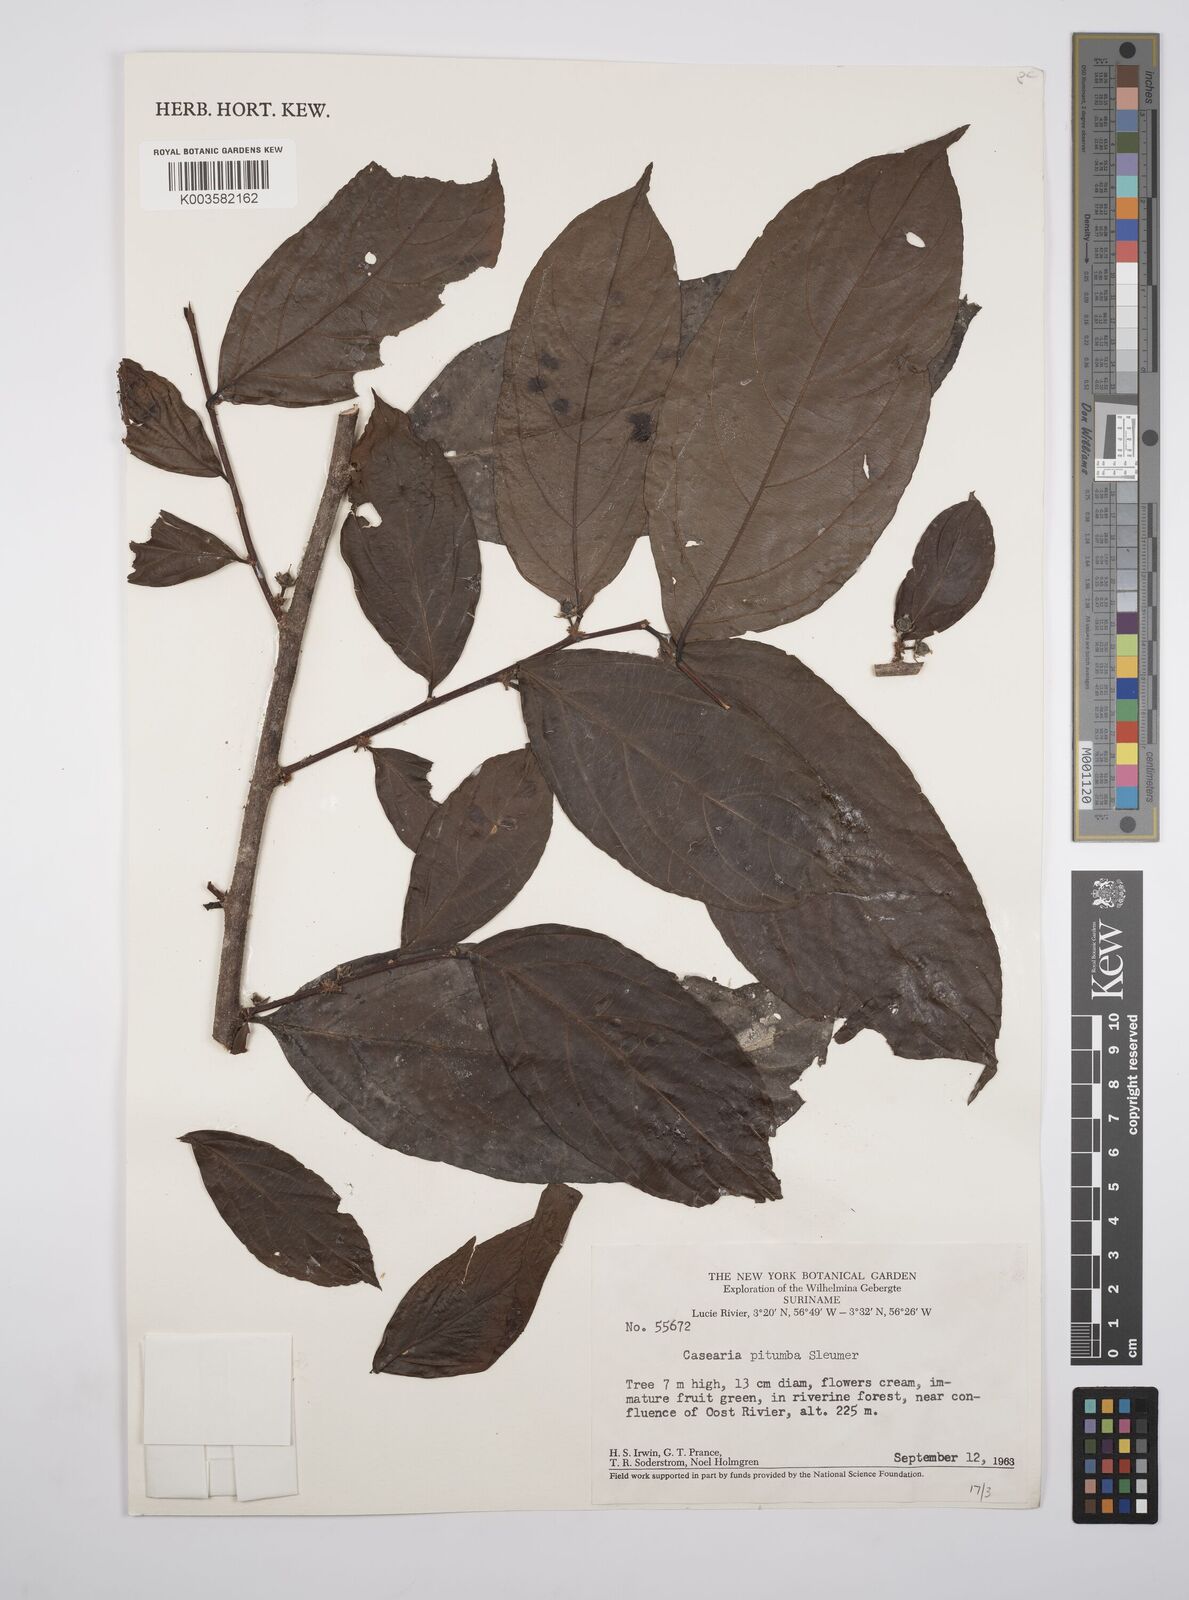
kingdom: Plantae
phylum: Tracheophyta
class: Magnoliopsida
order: Malpighiales
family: Salicaceae
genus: Casearia
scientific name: Casearia pitumba
